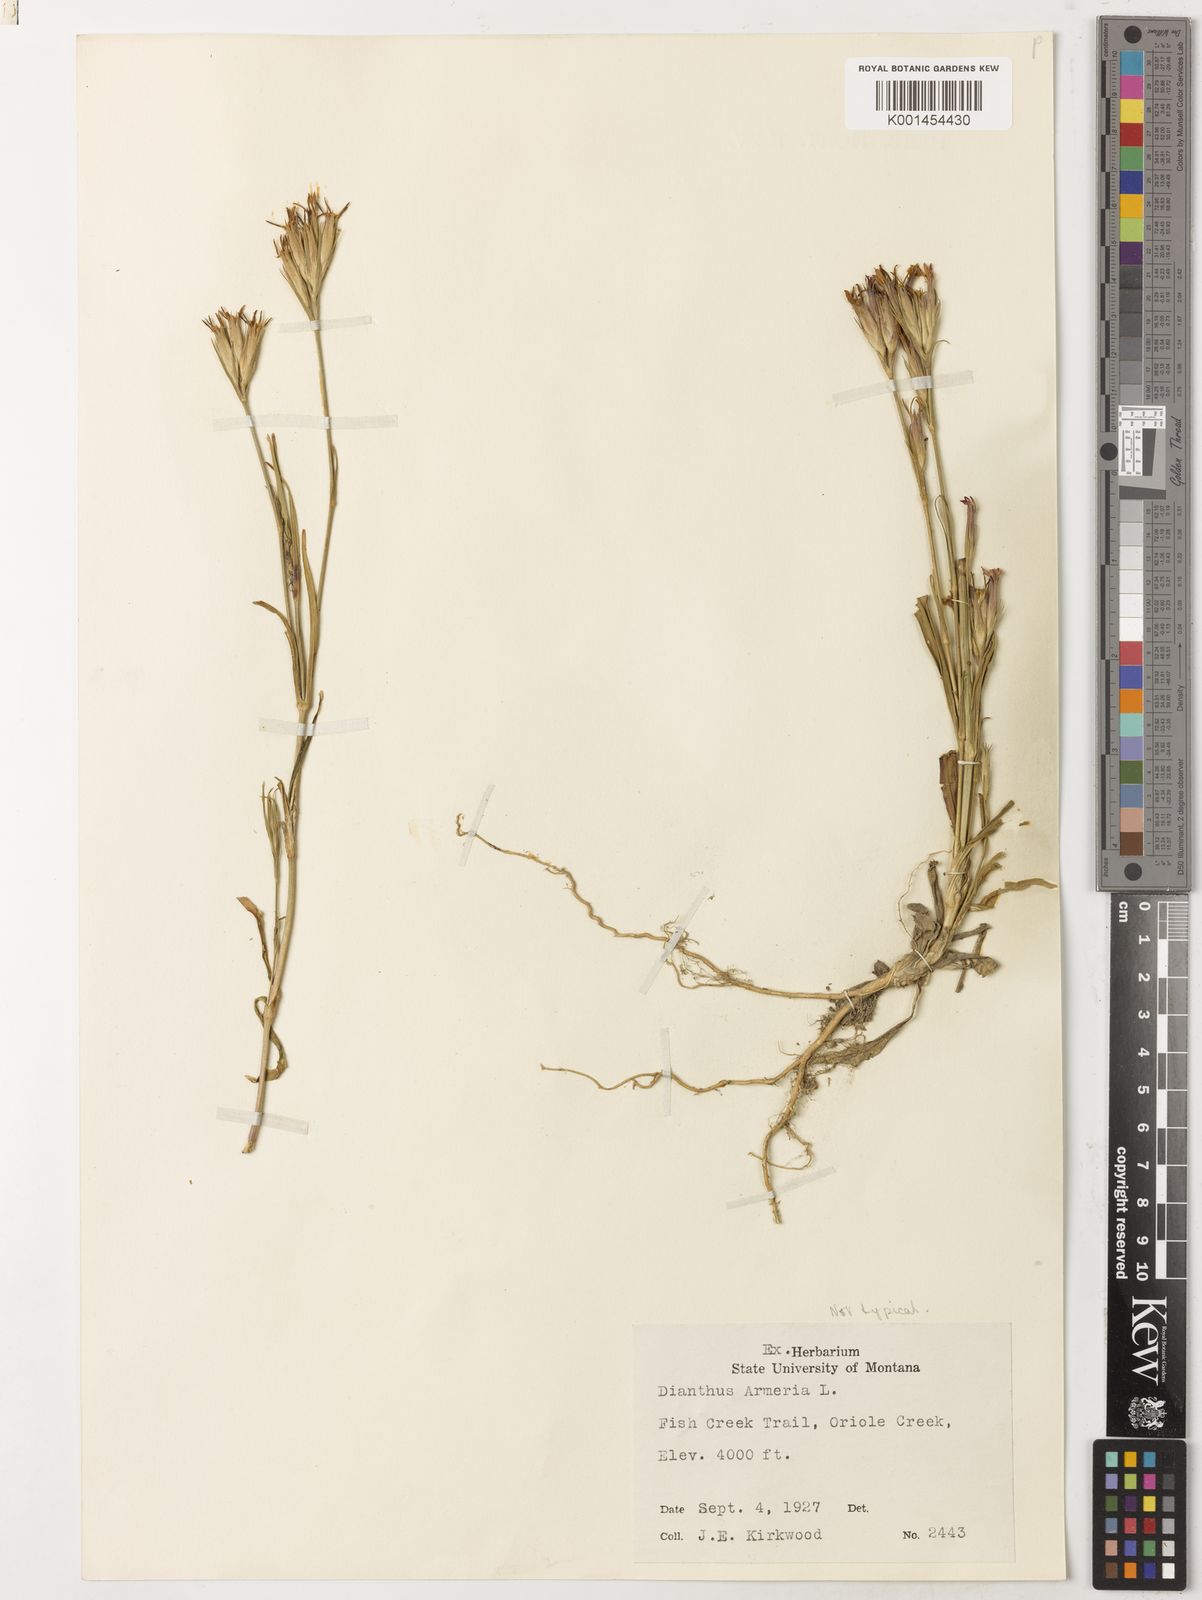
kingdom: Plantae
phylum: Tracheophyta
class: Magnoliopsida
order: Caryophyllales
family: Caryophyllaceae
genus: Dianthus
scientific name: Dianthus armeria
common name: Deptford pink
